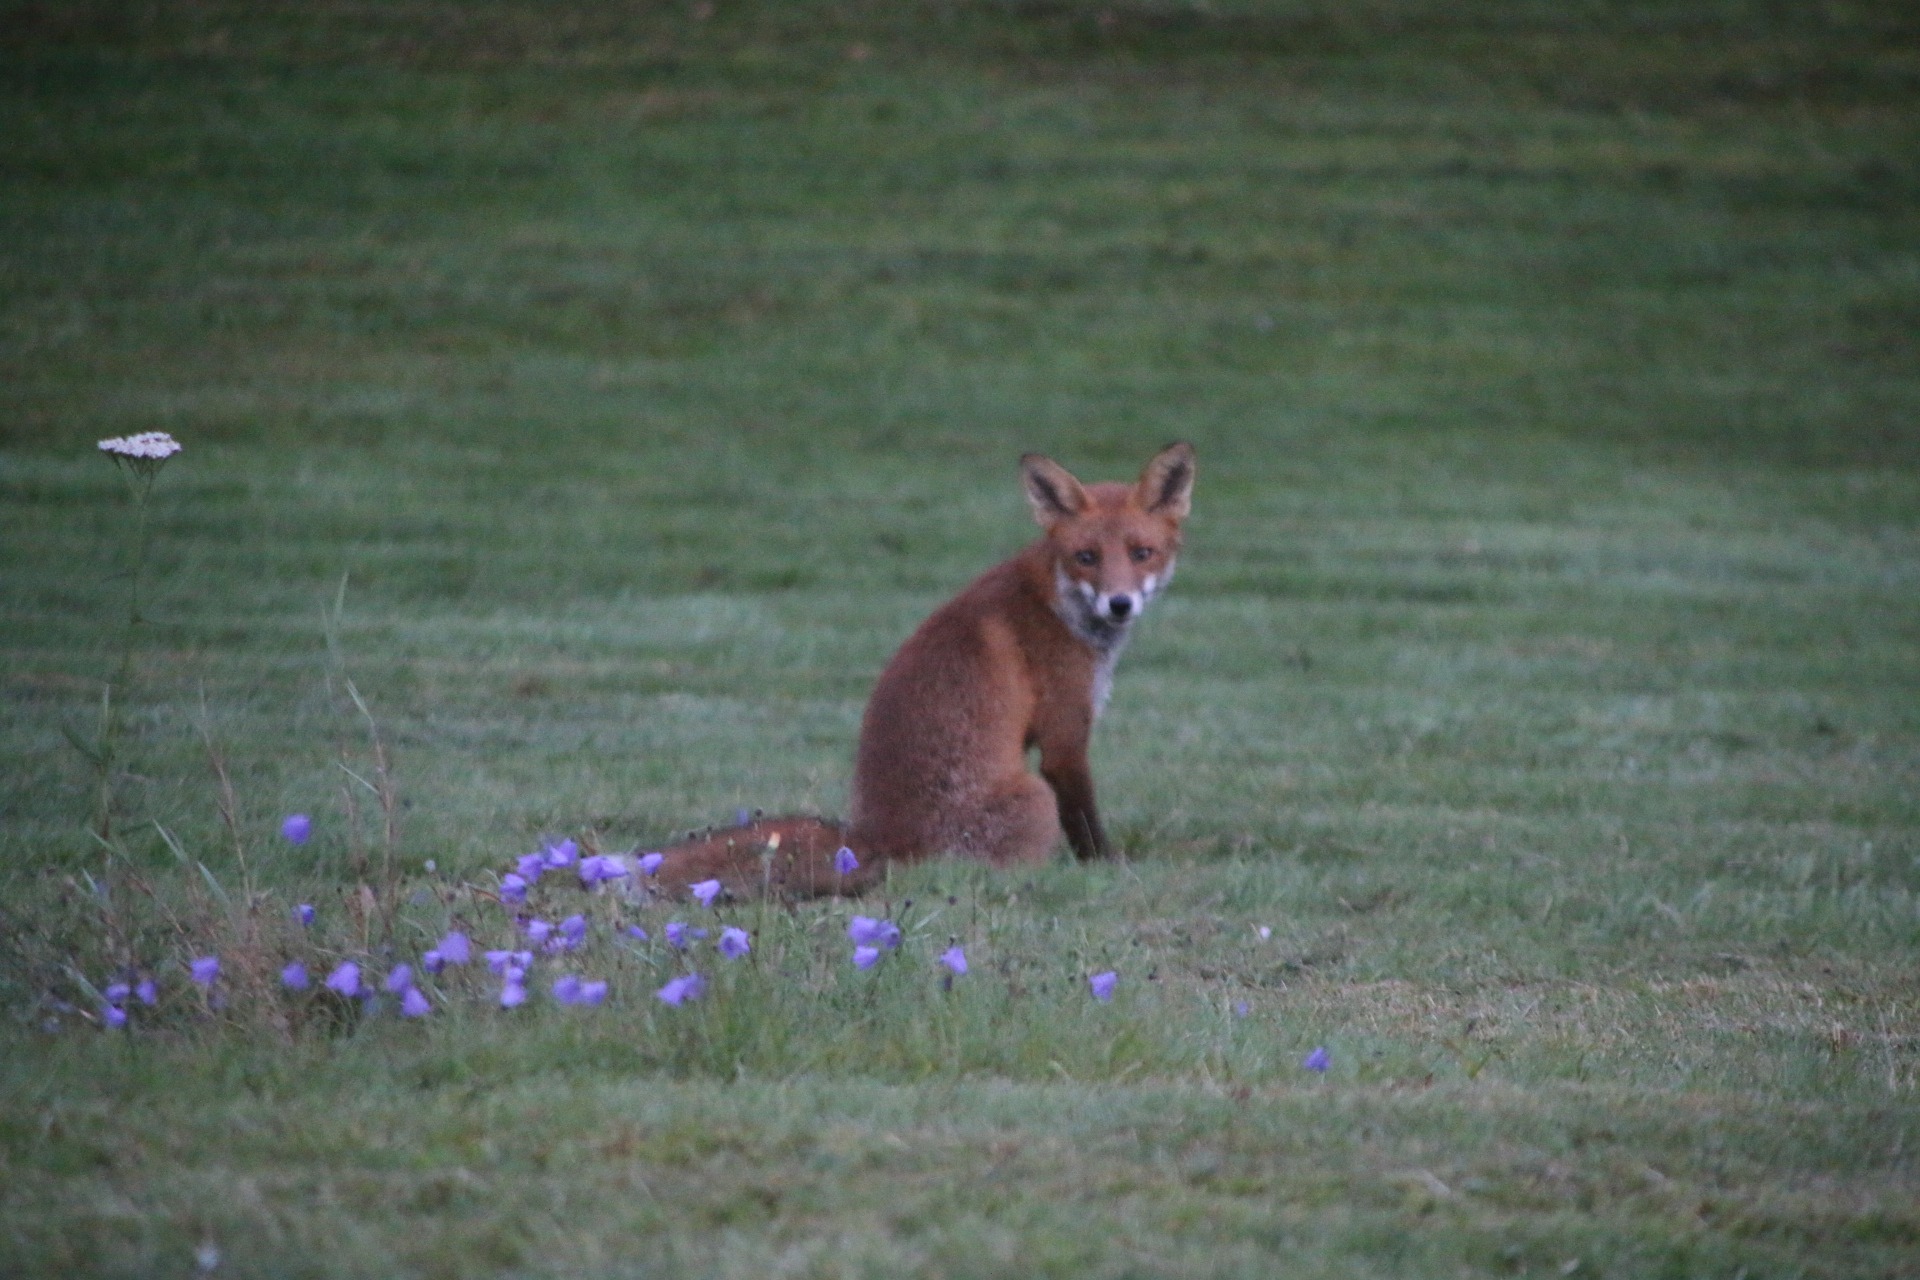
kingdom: Animalia
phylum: Chordata
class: Mammalia
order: Carnivora
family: Canidae
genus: Vulpes
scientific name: Vulpes vulpes
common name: Ræv
